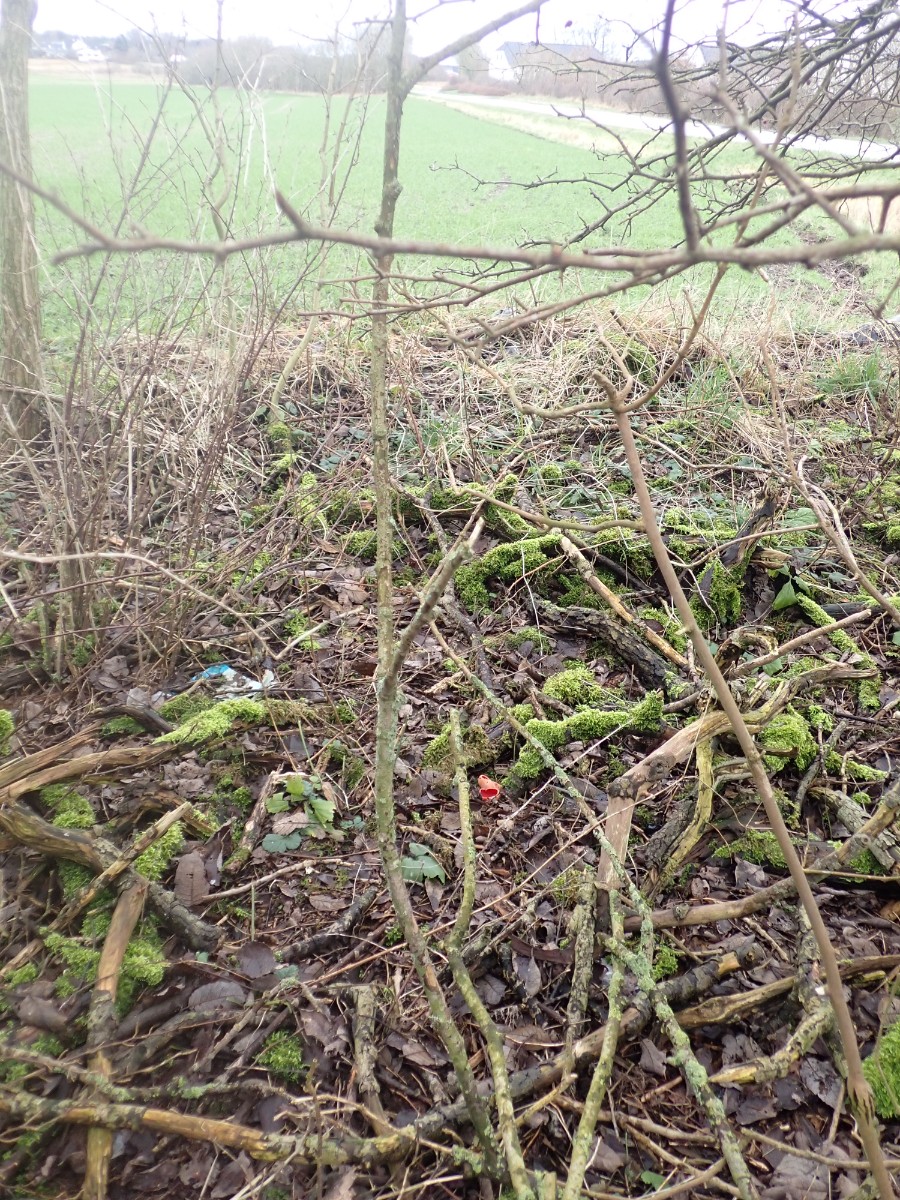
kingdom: Fungi
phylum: Ascomycota
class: Pezizomycetes
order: Pezizales
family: Sarcoscyphaceae
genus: Sarcoscypha
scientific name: Sarcoscypha austriaca
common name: krølhåret pragtbæger
